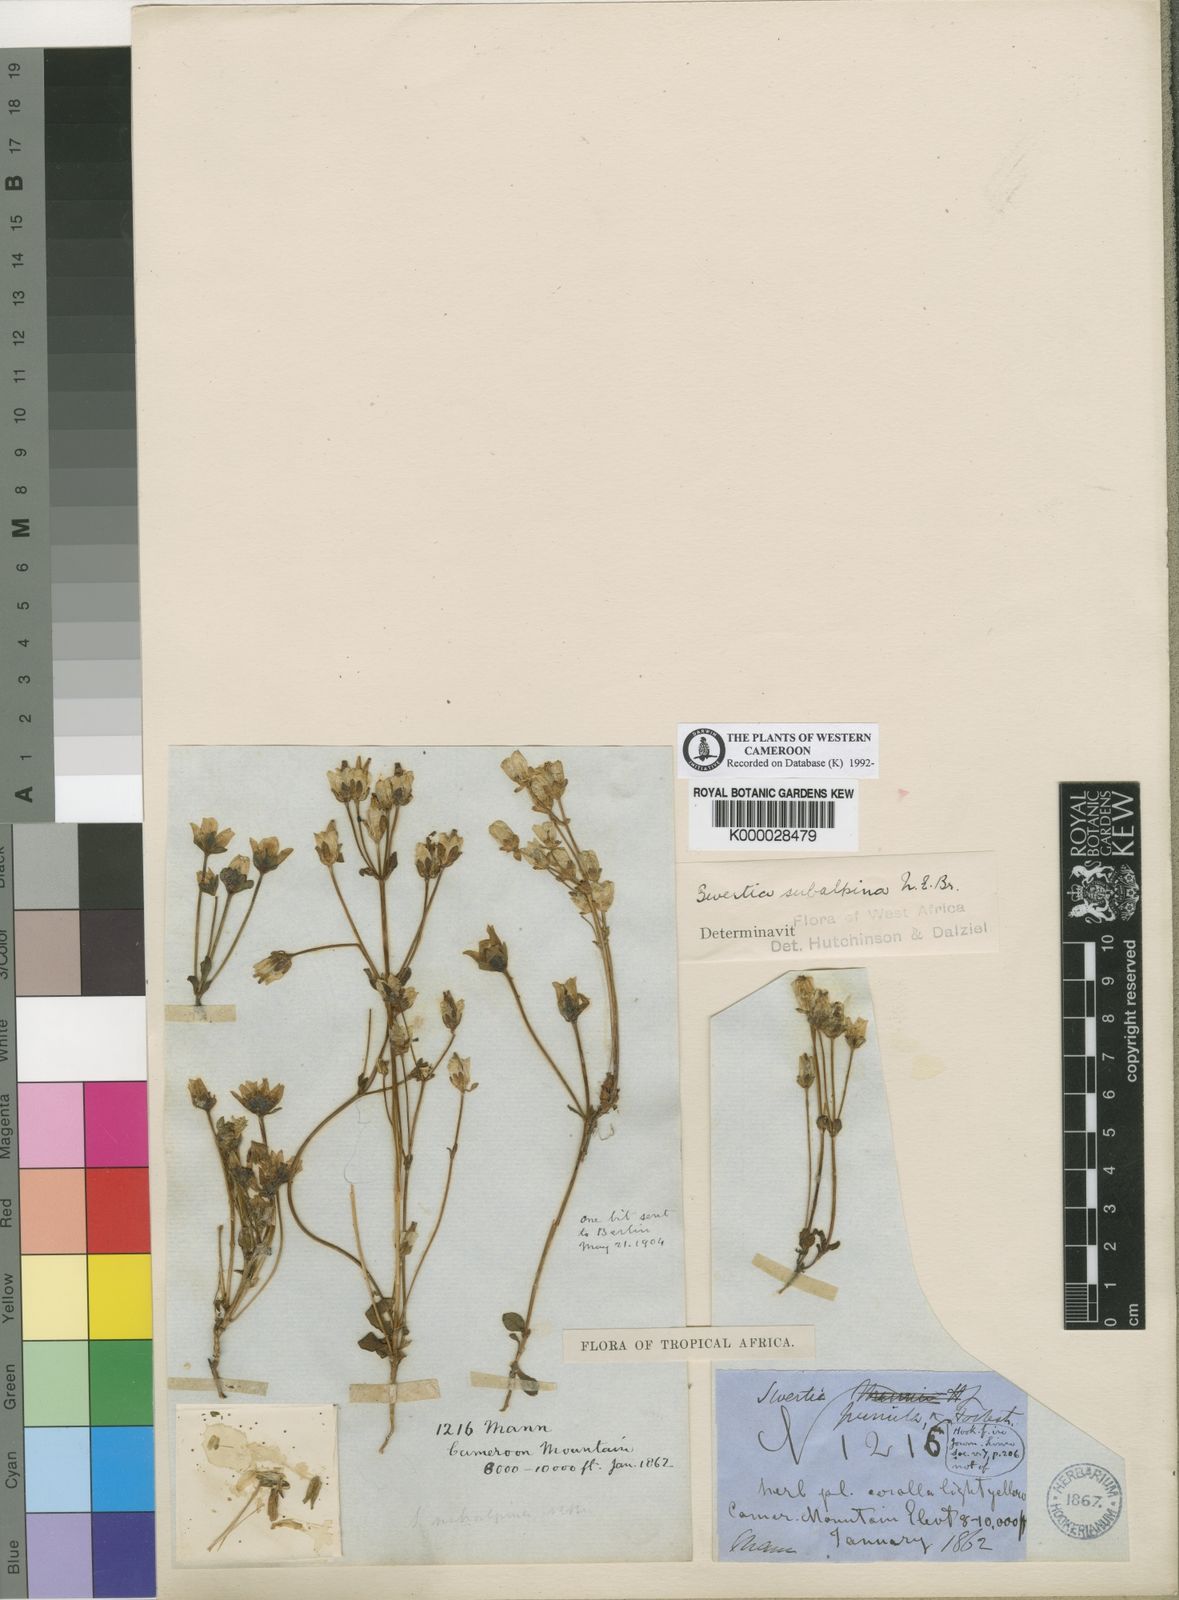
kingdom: Plantae
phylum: Tracheophyta
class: Magnoliopsida
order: Gentianales
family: Gentianaceae
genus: Swertia
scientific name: Swertia abyssinica
